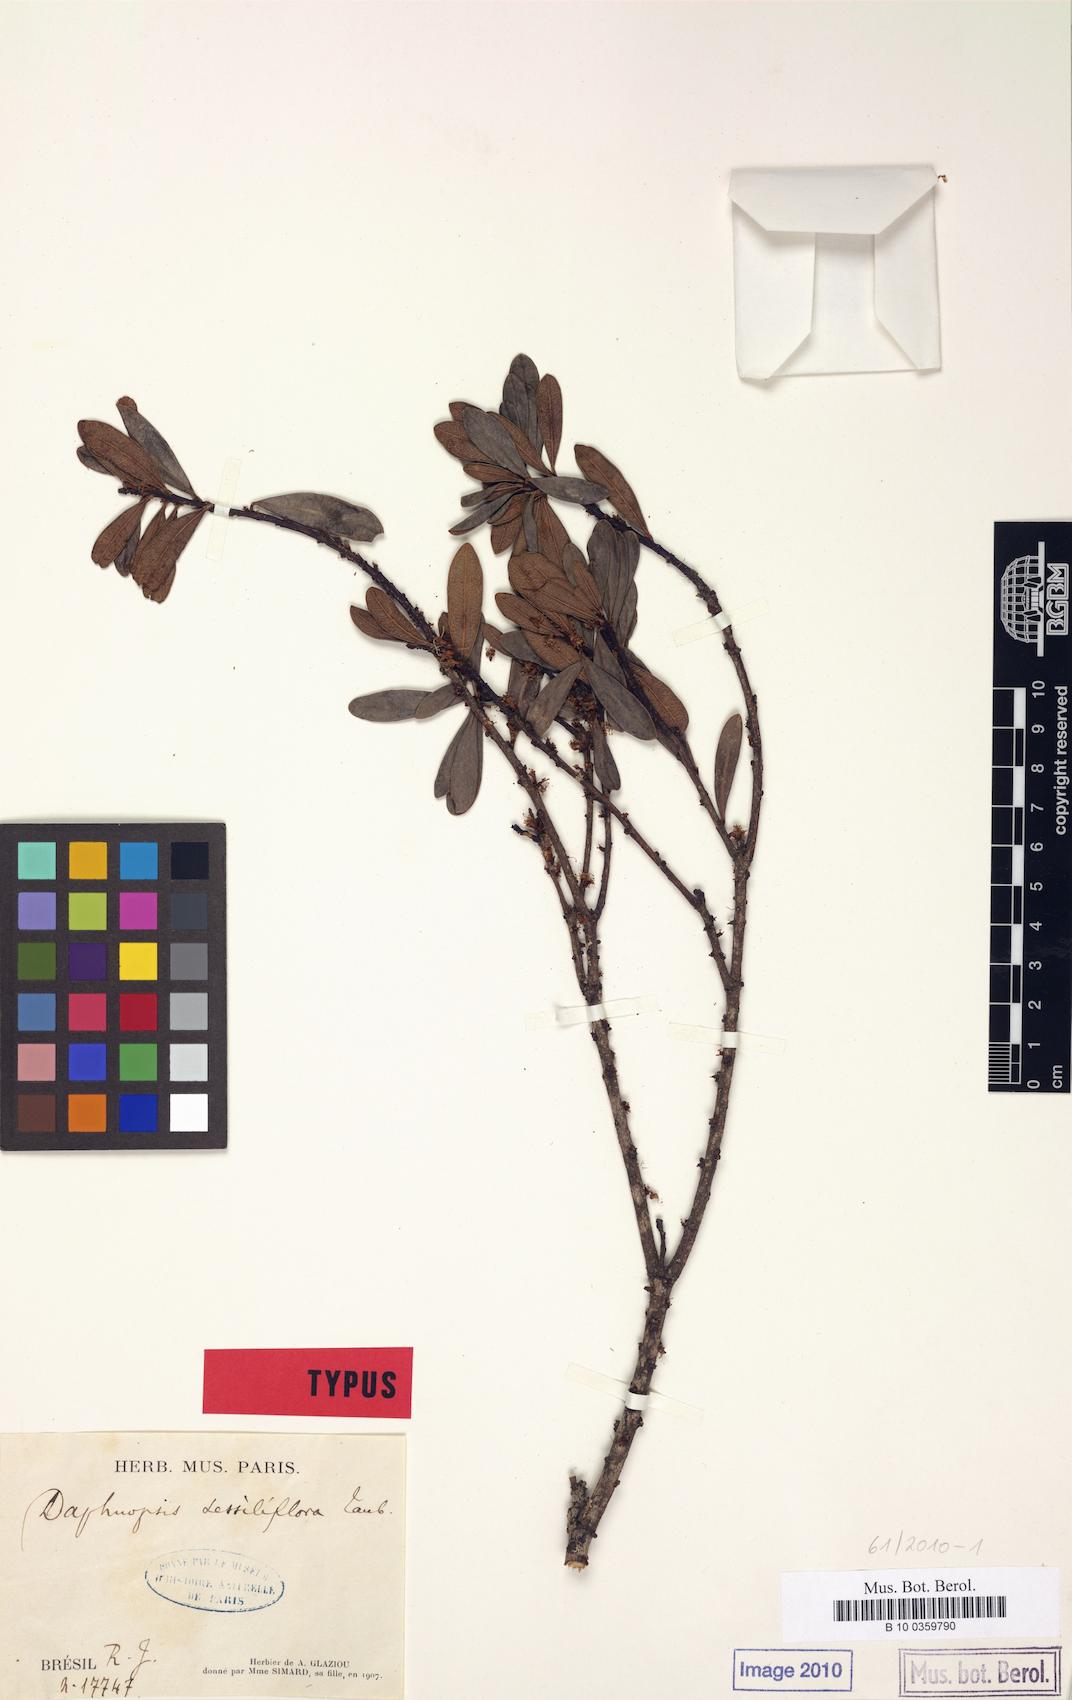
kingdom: Plantae
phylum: Tracheophyta
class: Magnoliopsida
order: Malvales
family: Thymelaeaceae
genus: Daphnopsis
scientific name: Daphnopsis utilis
